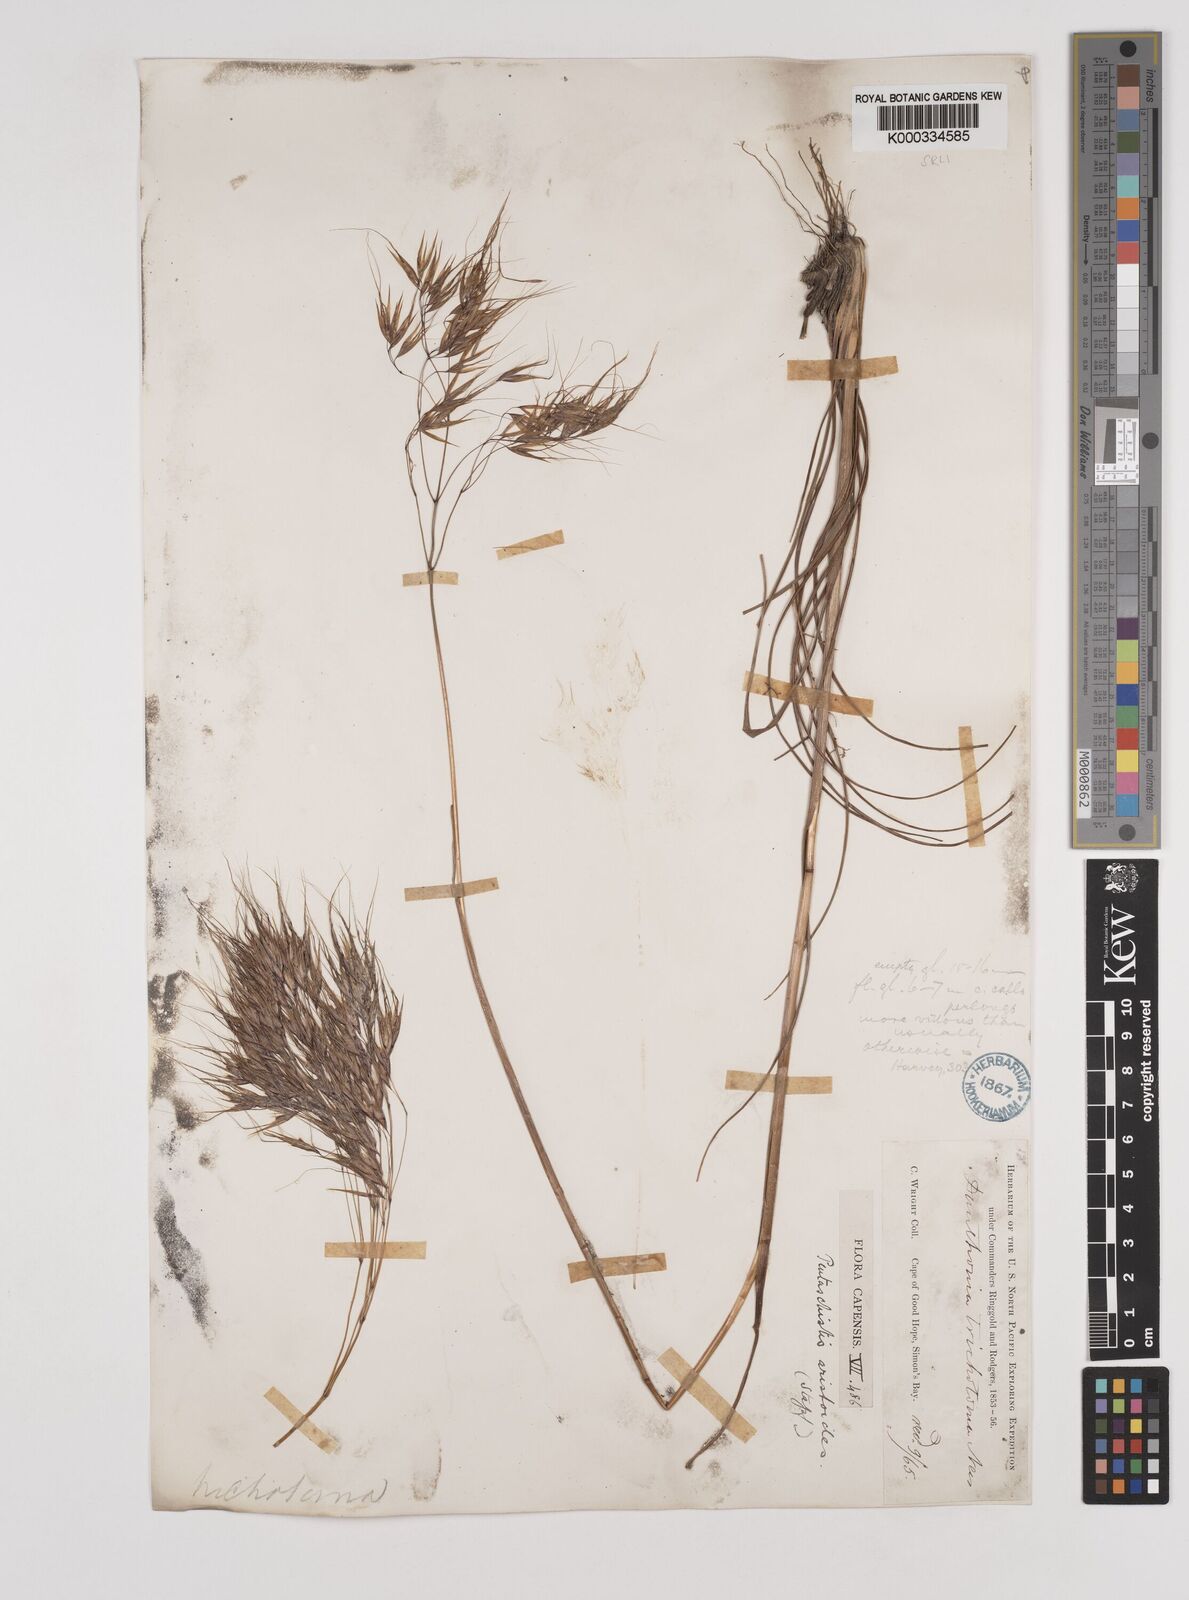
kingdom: Plantae
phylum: Tracheophyta
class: Liliopsida
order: Poales
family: Poaceae
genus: Pentameris
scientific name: Pentameris aristidoides
